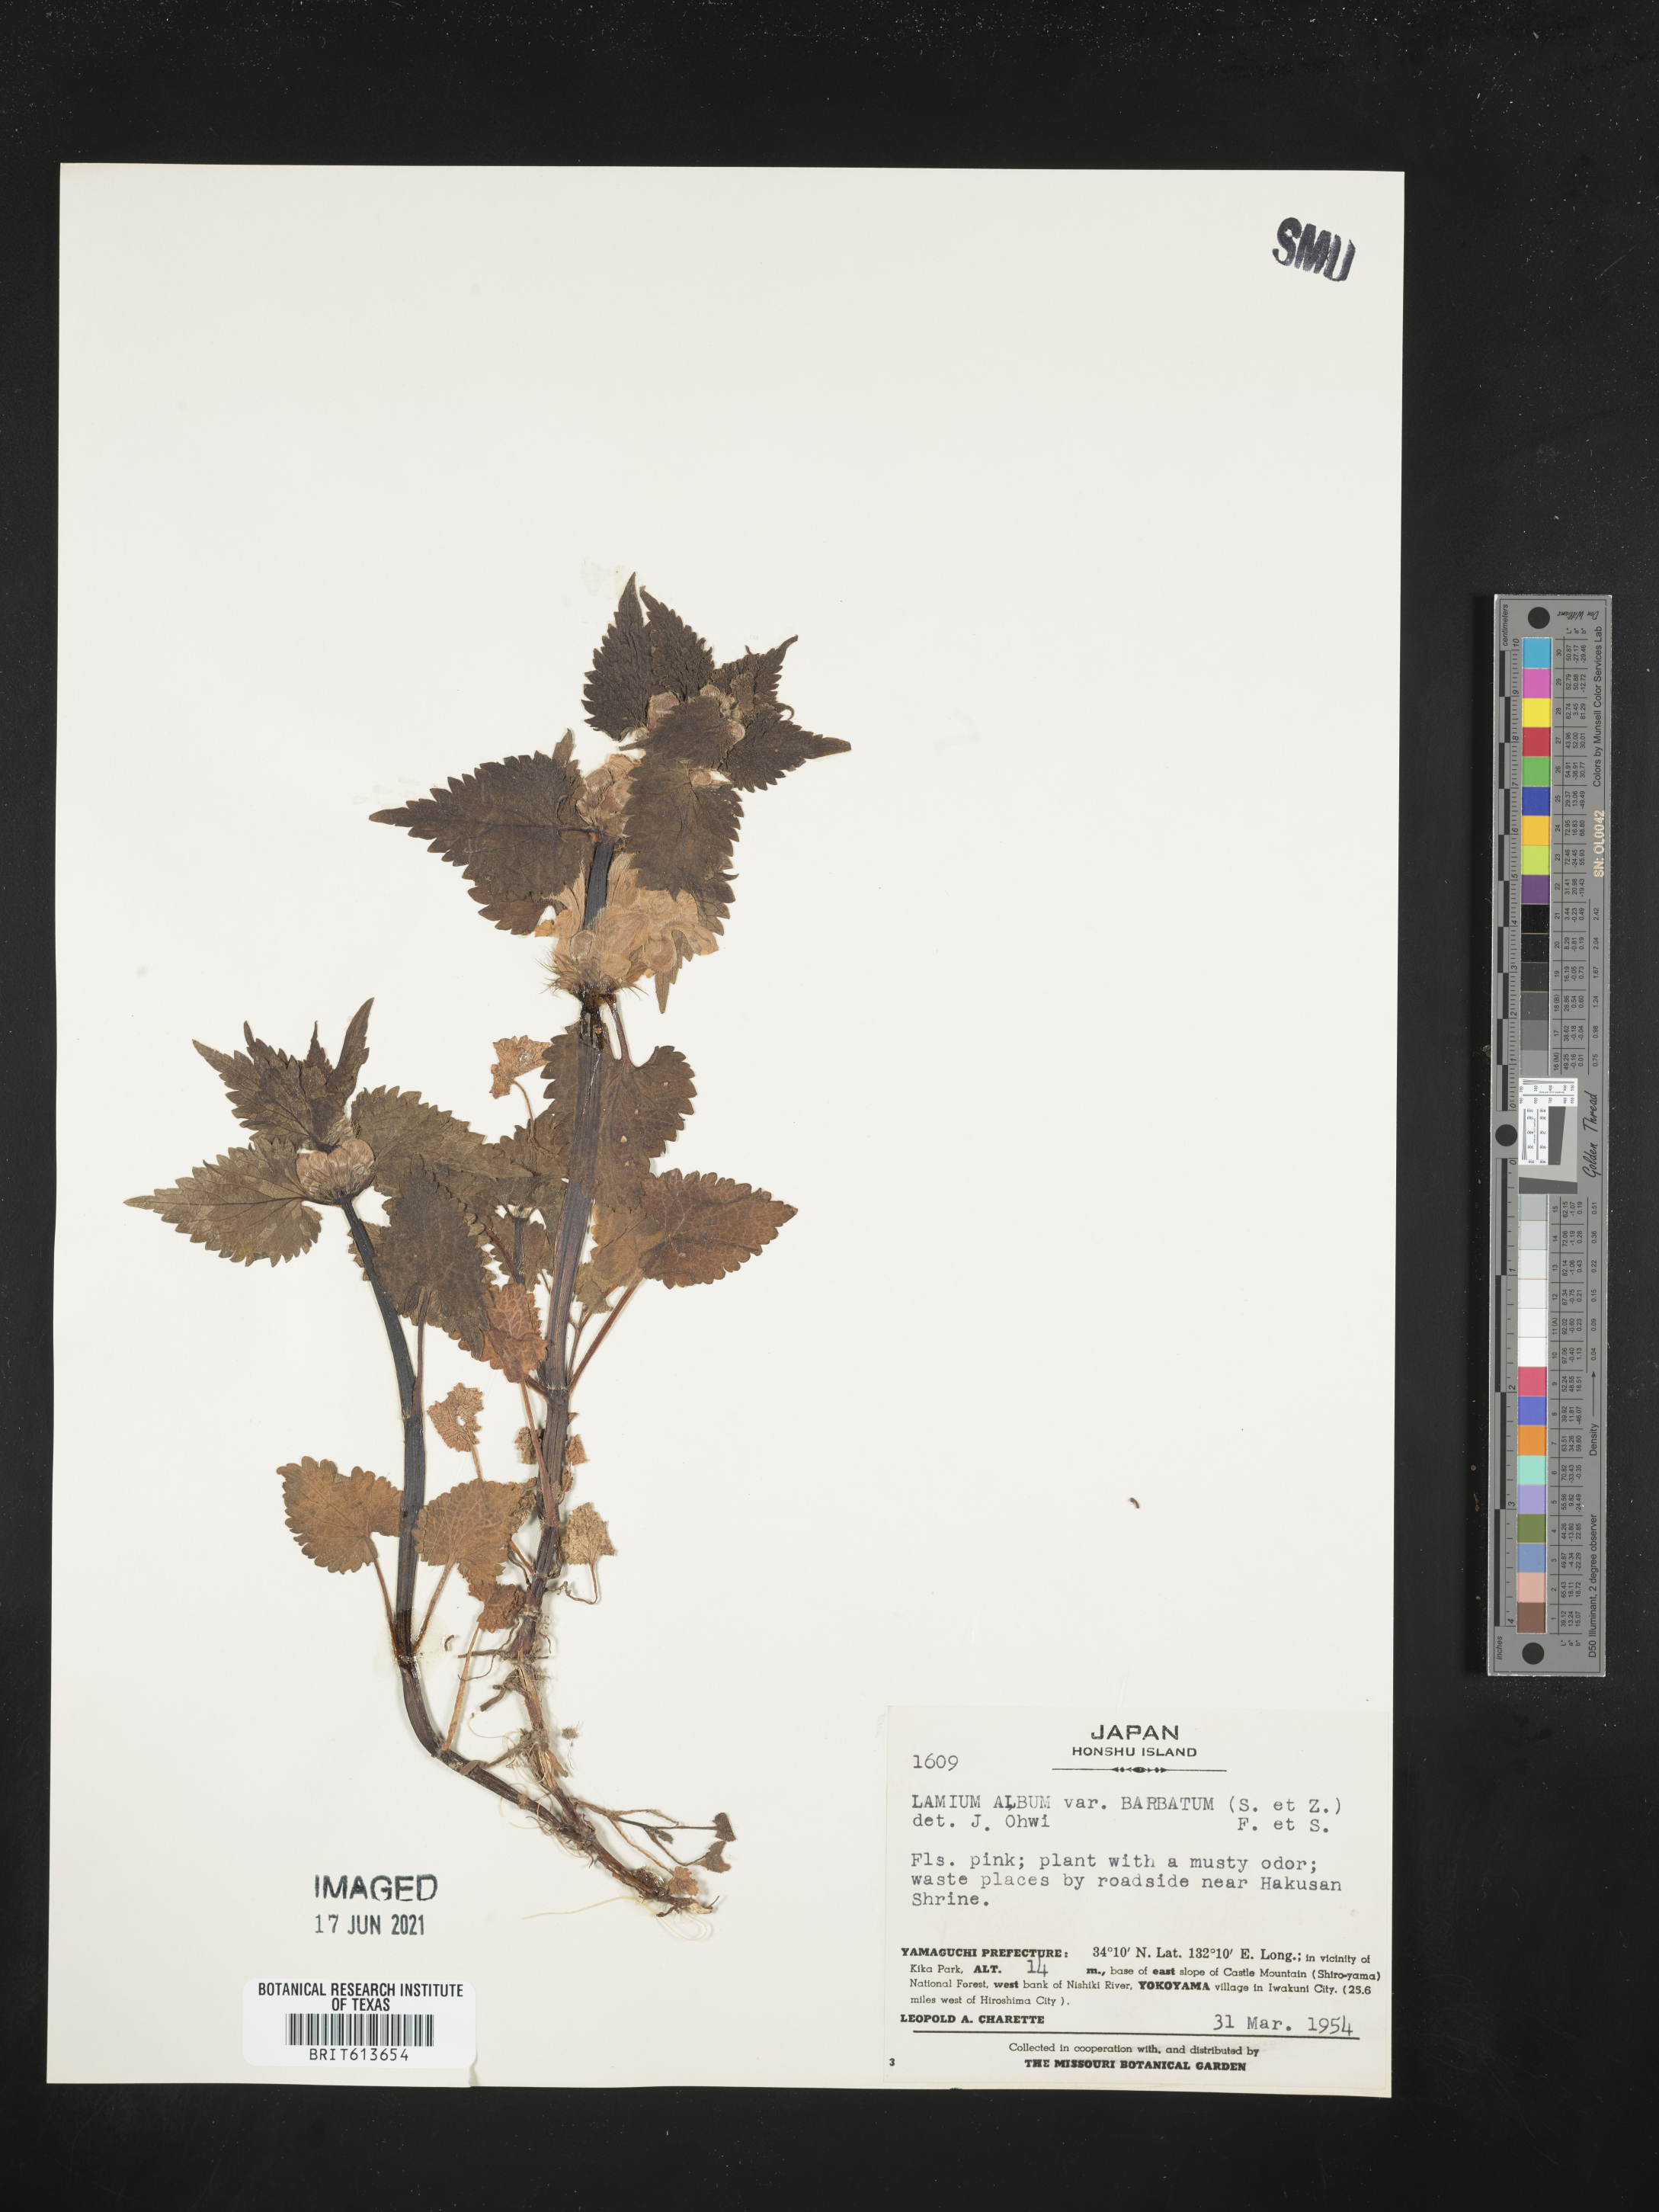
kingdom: Plantae
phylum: Tracheophyta
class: Magnoliopsida
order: Lamiales
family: Lamiaceae
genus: Lamium
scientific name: Lamium album
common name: White dead-nettle
